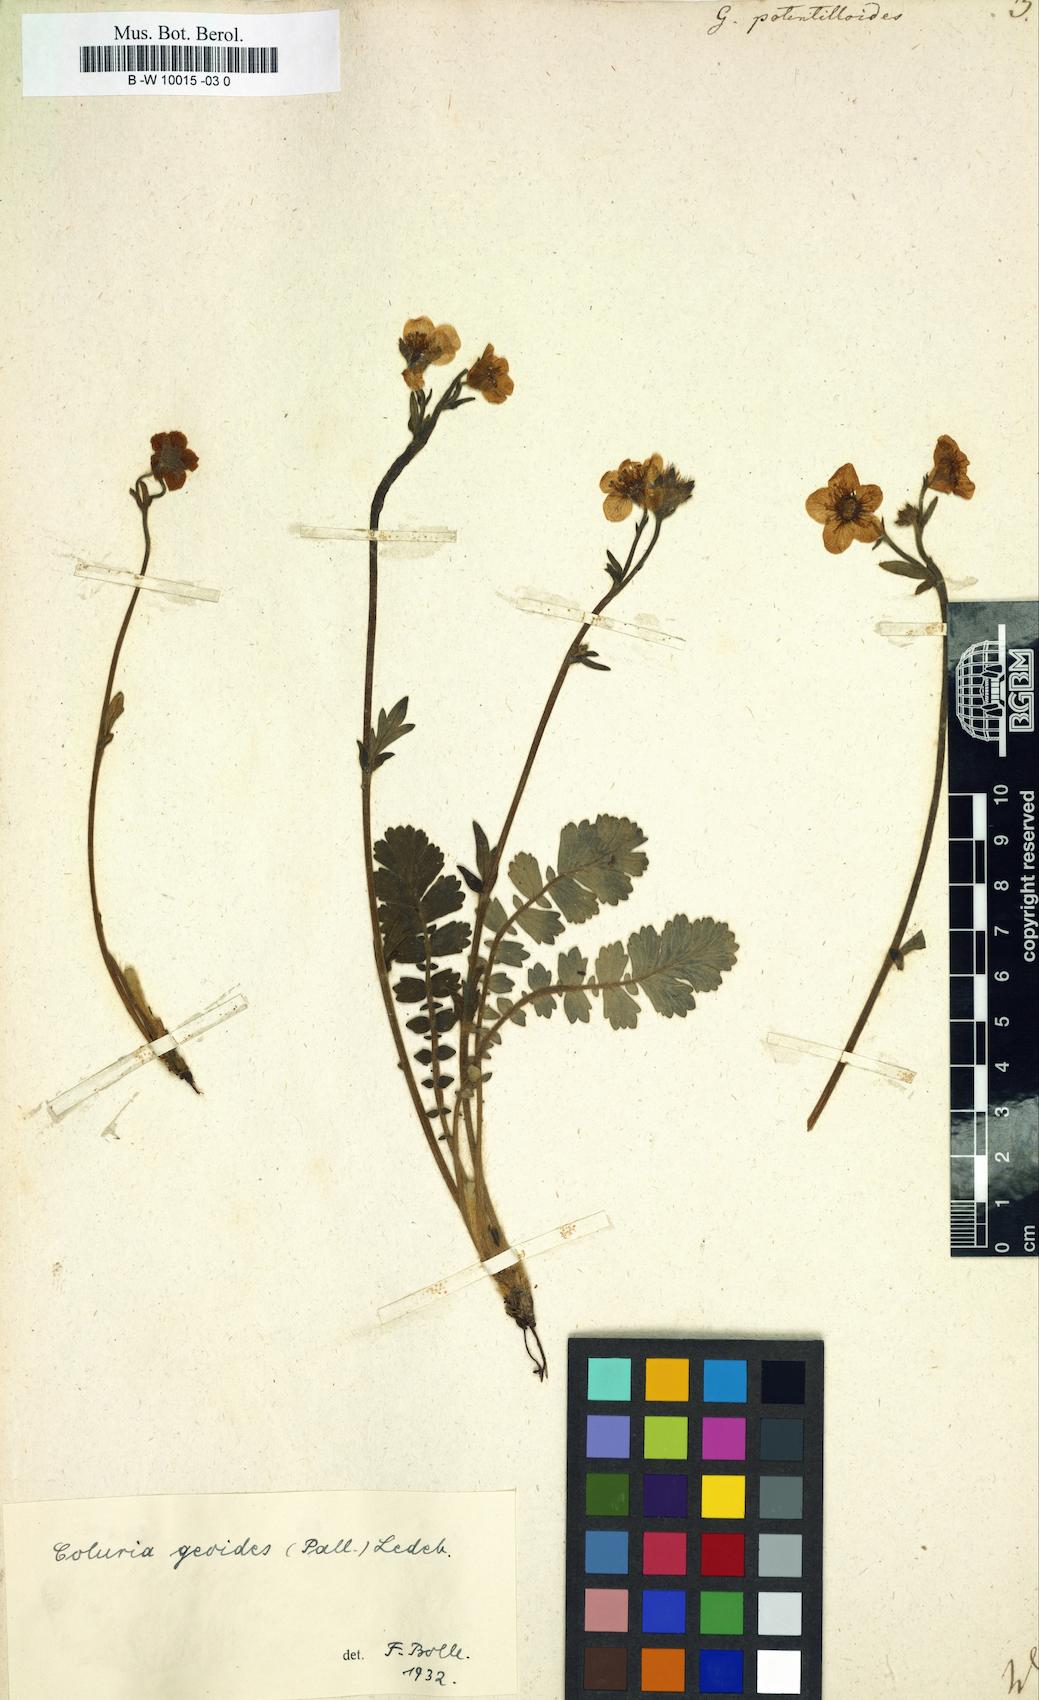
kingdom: Plantae
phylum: Tracheophyta
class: Magnoliopsida
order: Rosales
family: Rosaceae
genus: Drymocallis
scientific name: Drymocallis geoides
